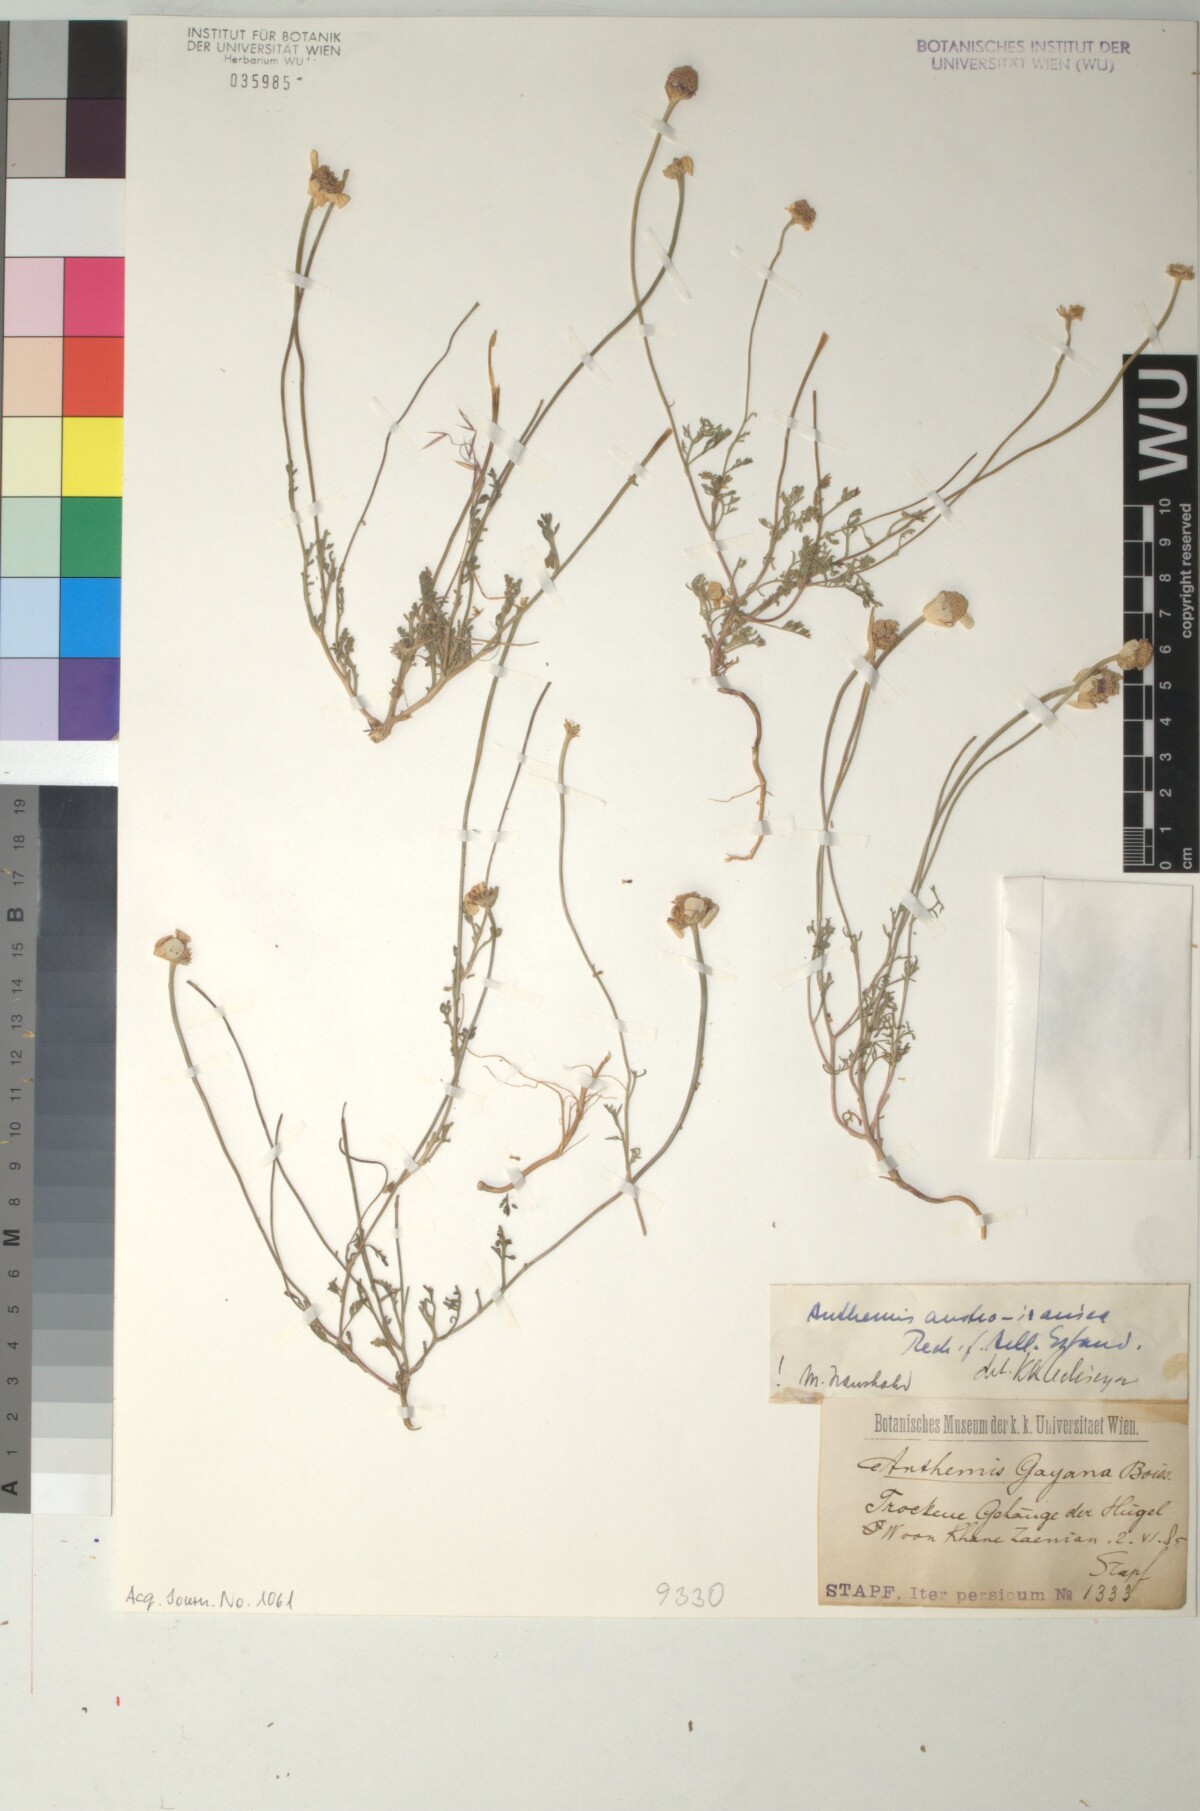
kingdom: Plantae
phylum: Tracheophyta
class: Magnoliopsida
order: Asterales
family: Asteraceae
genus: Anthemis
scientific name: Anthemis austroiranica
